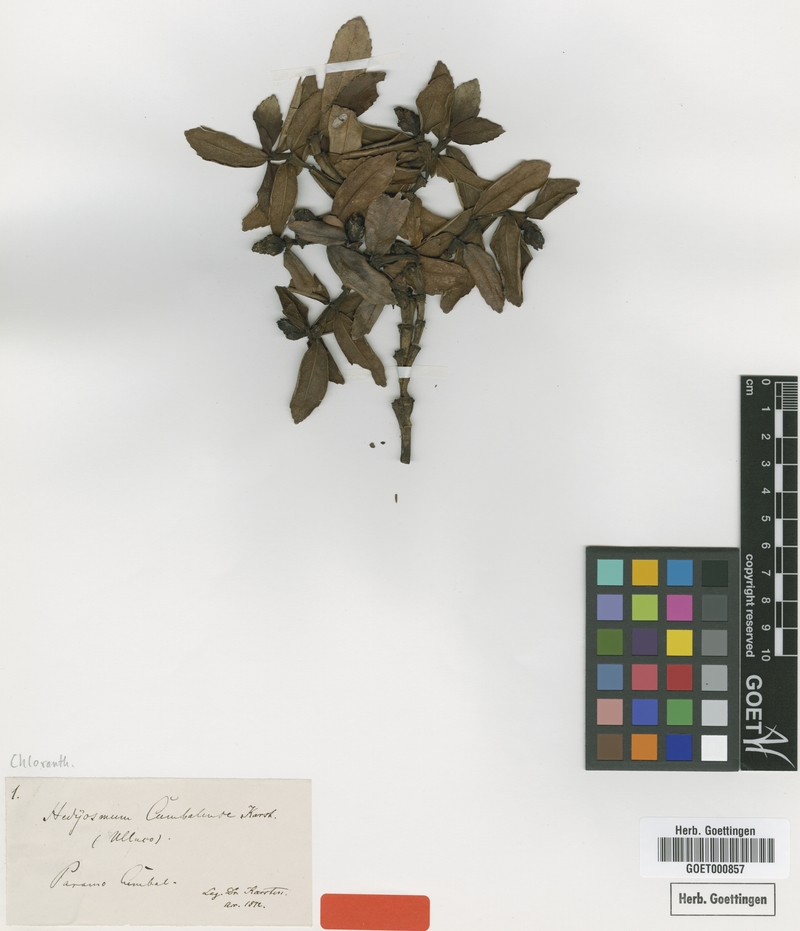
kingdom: Plantae
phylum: Tracheophyta
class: Magnoliopsida
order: Chloranthales
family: Chloranthaceae
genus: Hedyosmum
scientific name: Hedyosmum cumbalense
